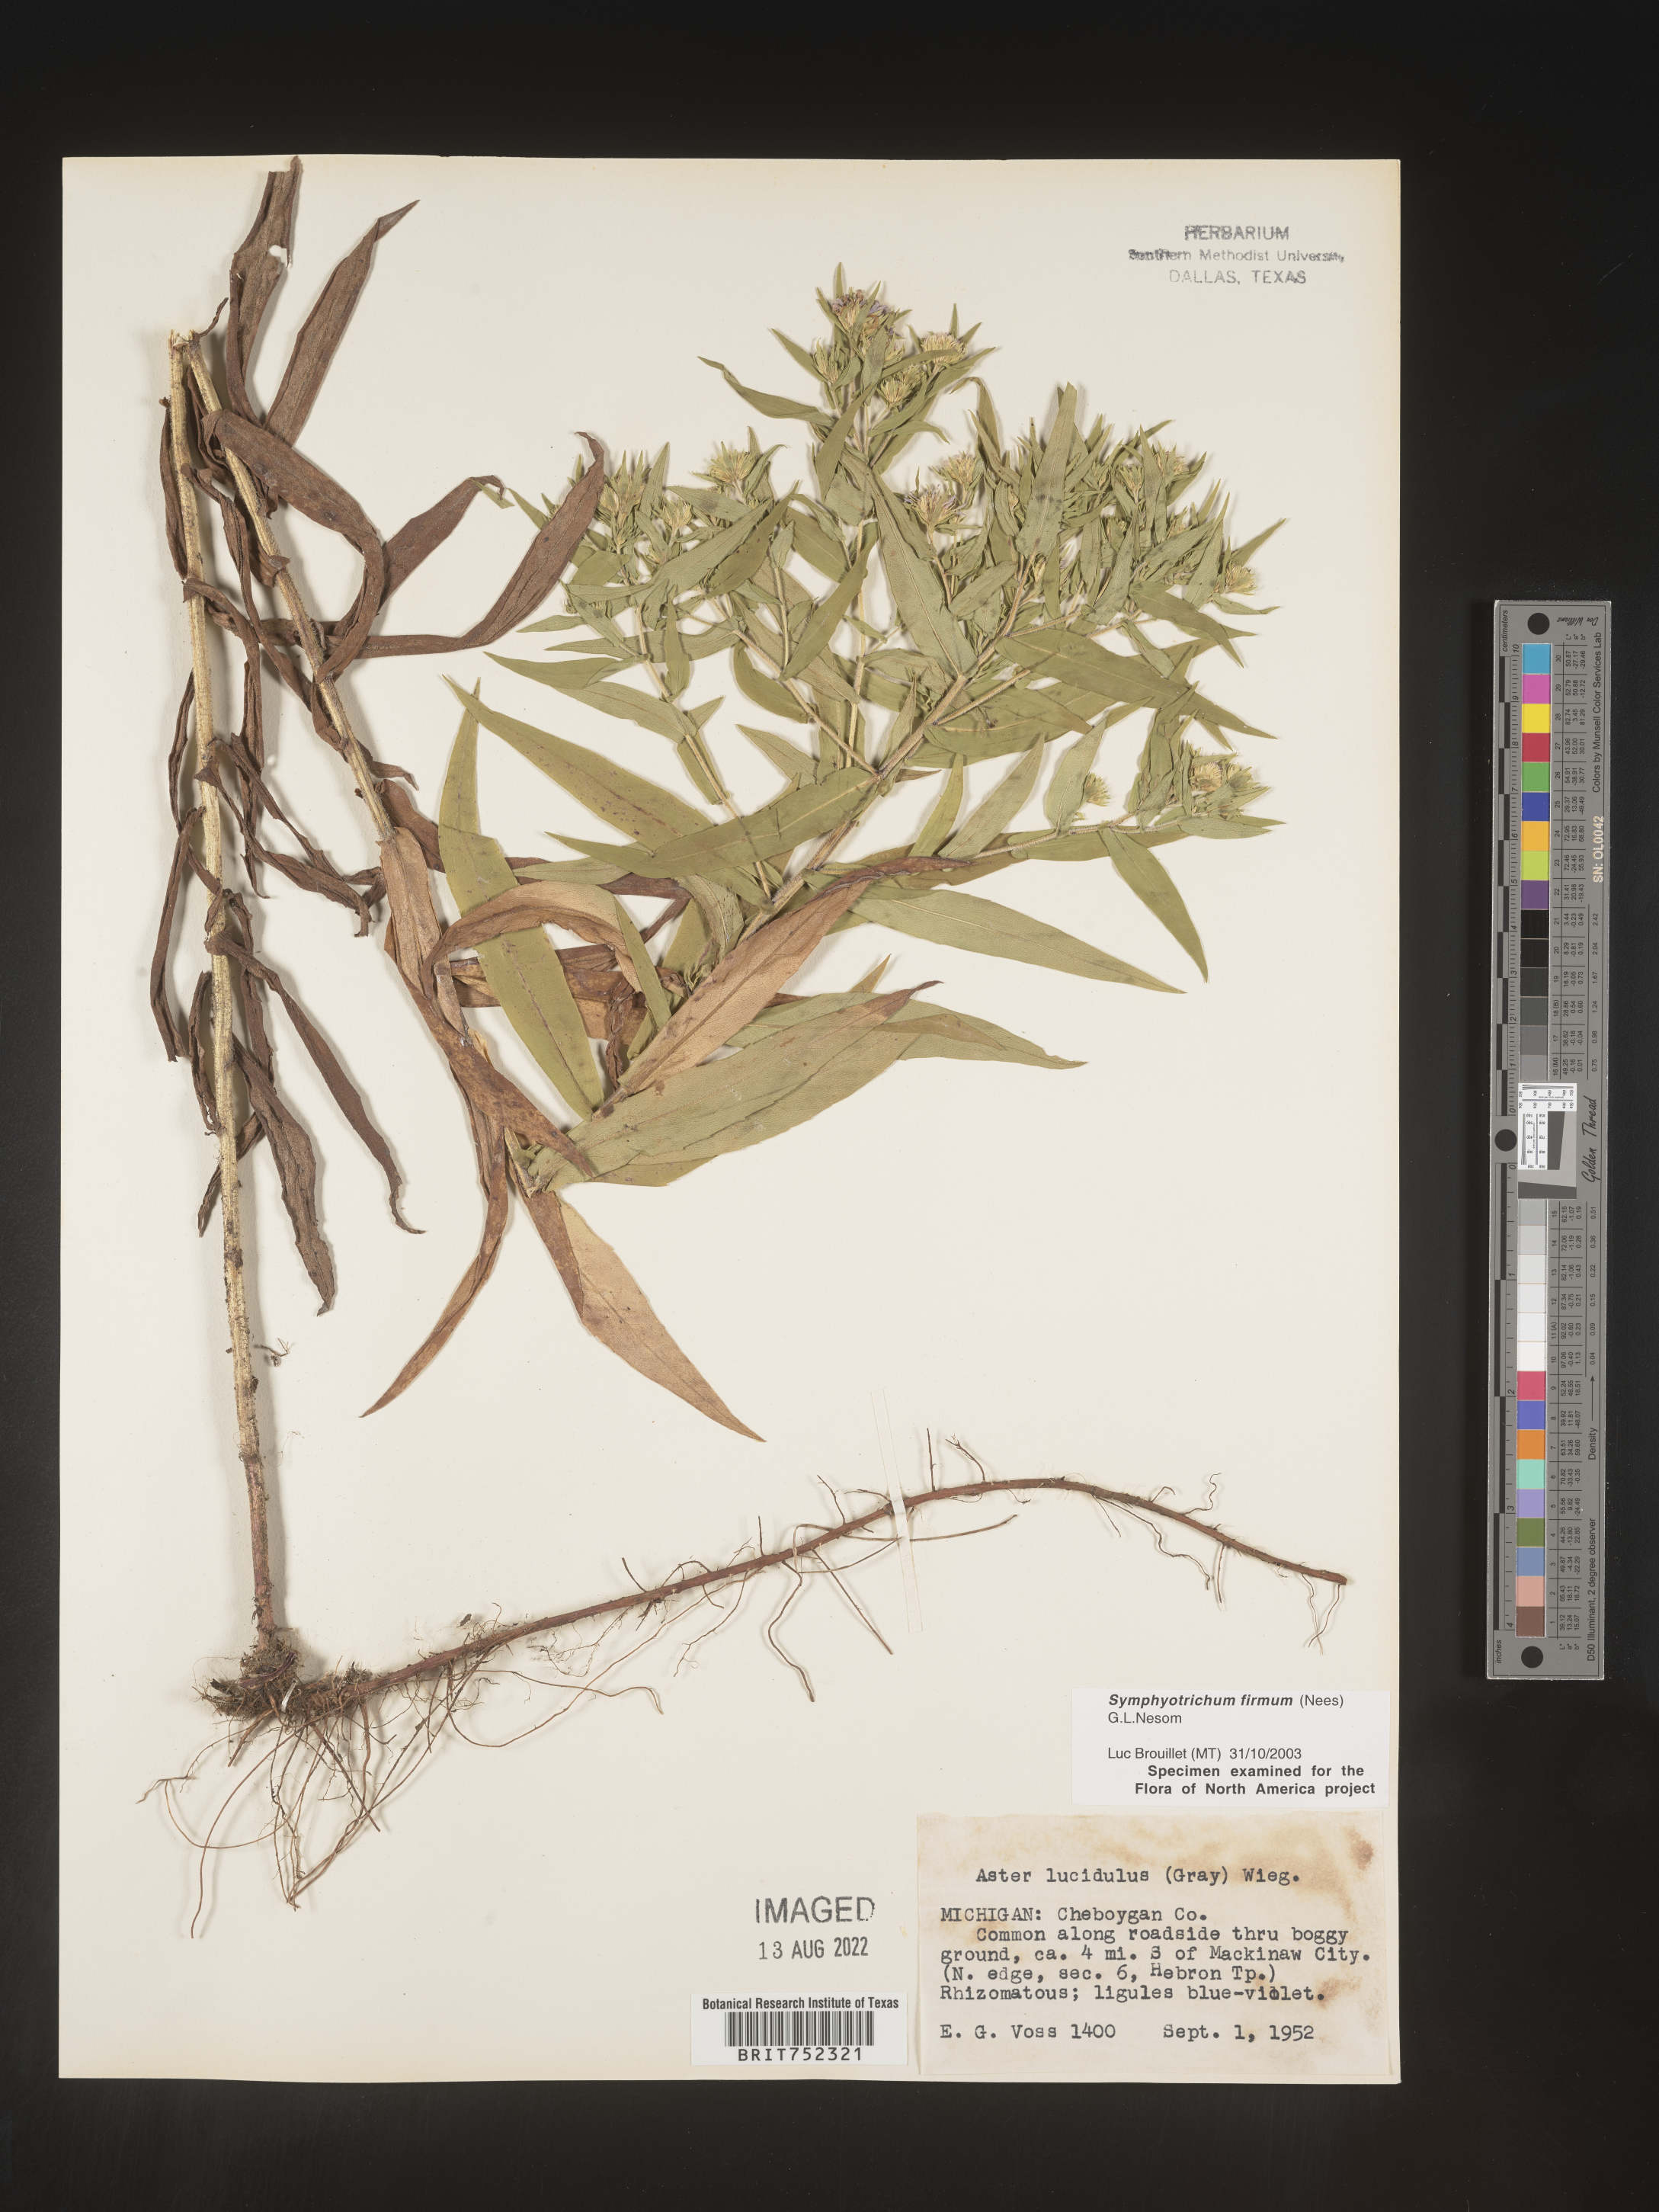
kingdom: Plantae
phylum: Tracheophyta
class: Magnoliopsida
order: Asterales
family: Asteraceae
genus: Symphyotrichum
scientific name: Symphyotrichum firmum
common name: Shining aster
